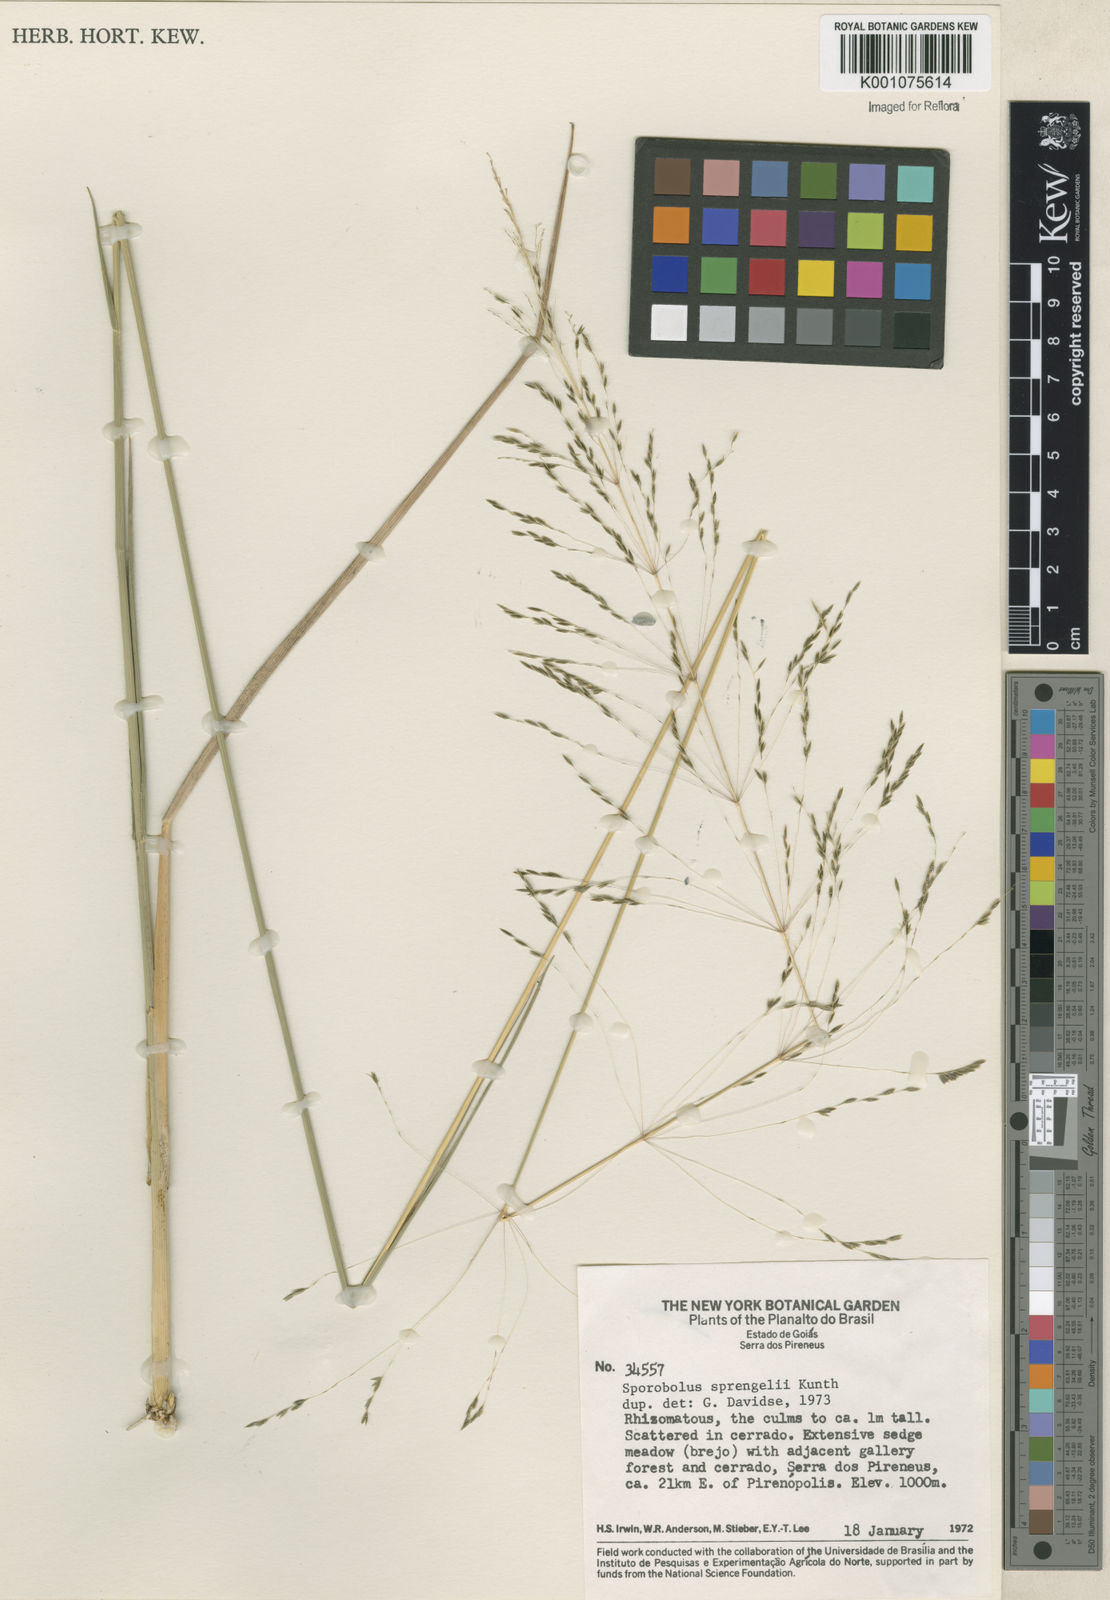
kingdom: Plantae
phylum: Tracheophyta
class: Liliopsida
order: Poales
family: Poaceae
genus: Sporobolus
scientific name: Sporobolus
